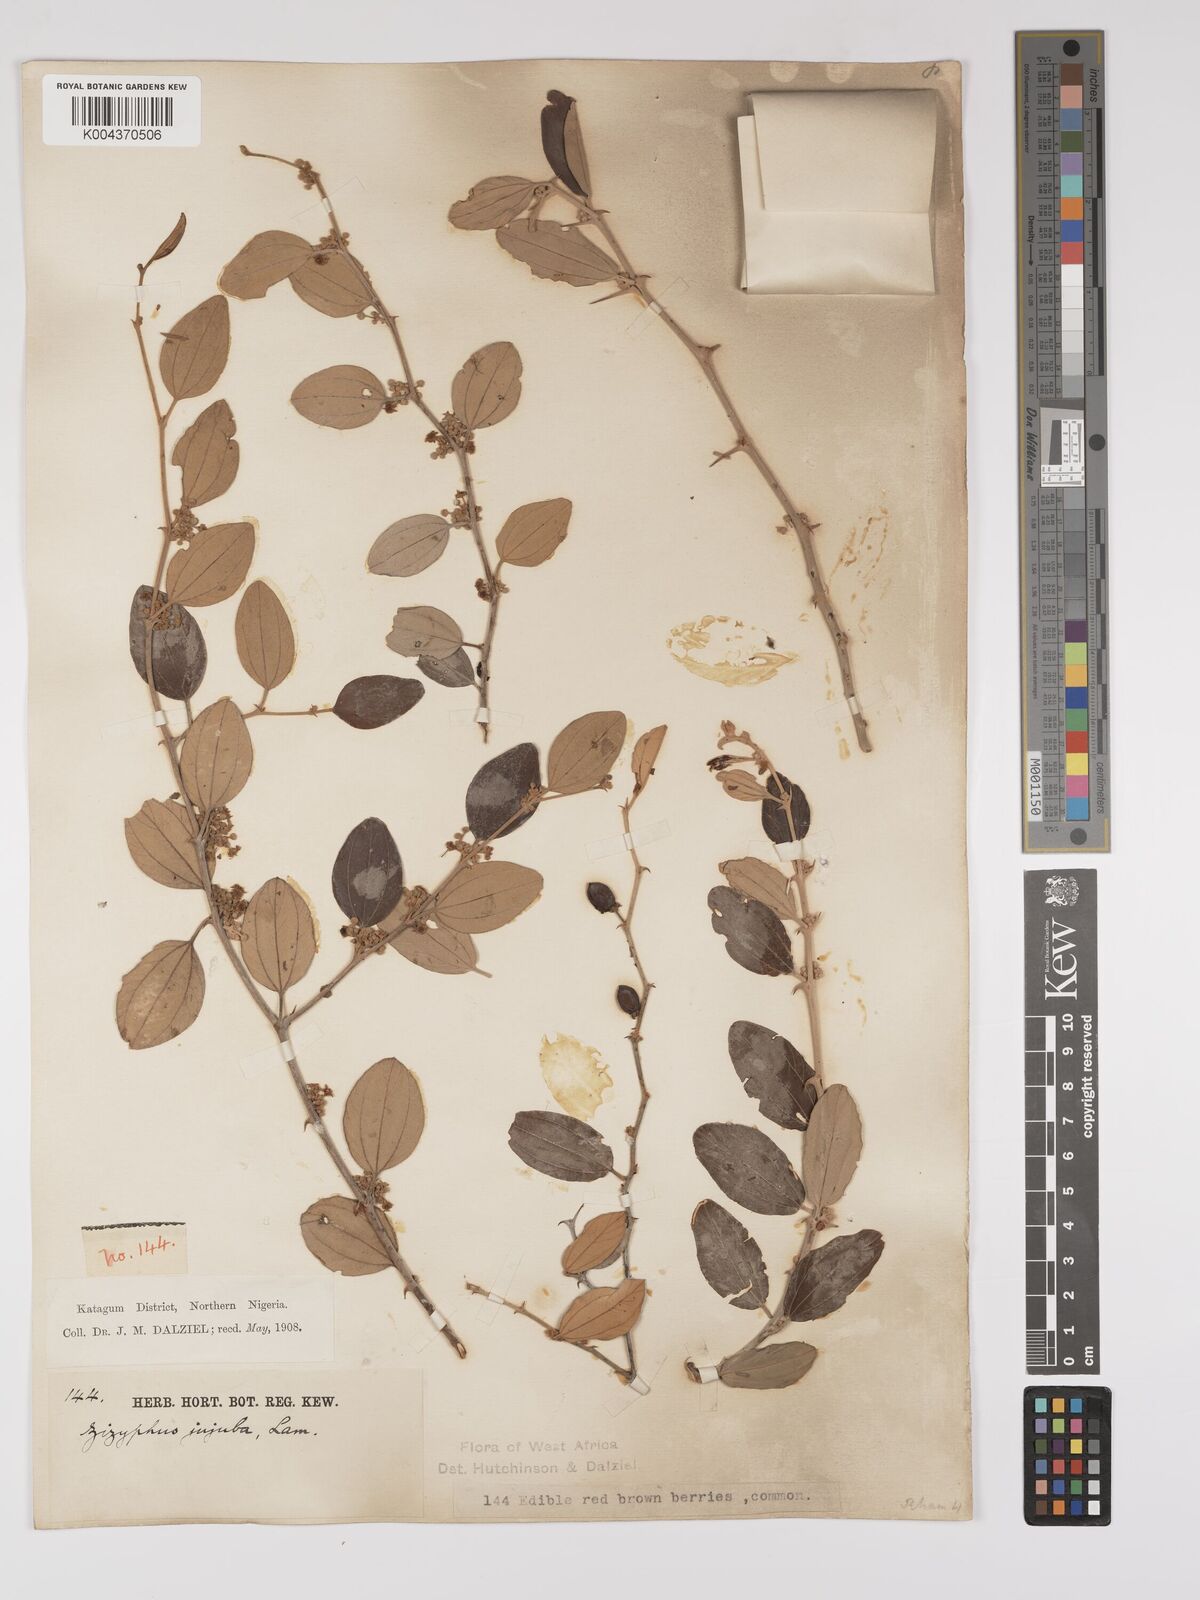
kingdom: Plantae
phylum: Tracheophyta
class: Magnoliopsida
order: Rosales
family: Rhamnaceae
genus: Ziziphus
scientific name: Ziziphus mauritiana
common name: Indian jujube
